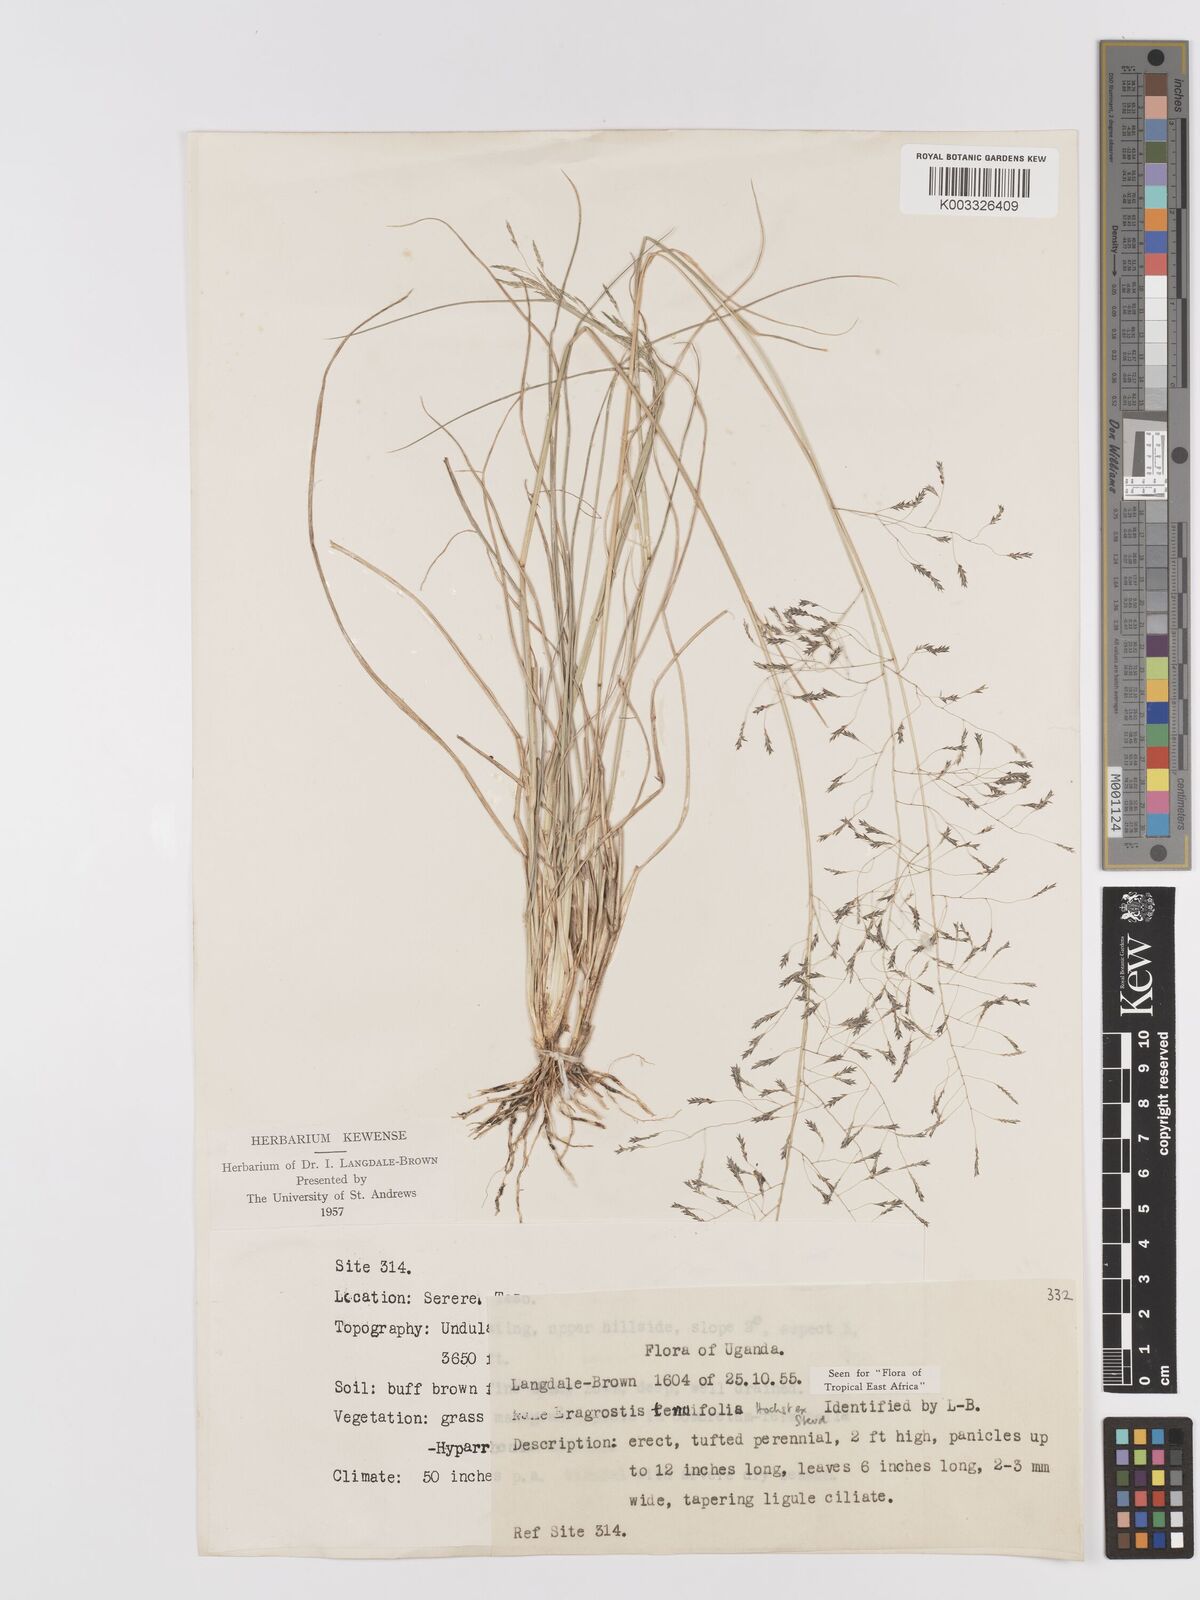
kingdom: Plantae
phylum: Tracheophyta
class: Liliopsida
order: Poales
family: Poaceae
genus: Eragrostis
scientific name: Eragrostis tenuifolia
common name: Elastic grass
